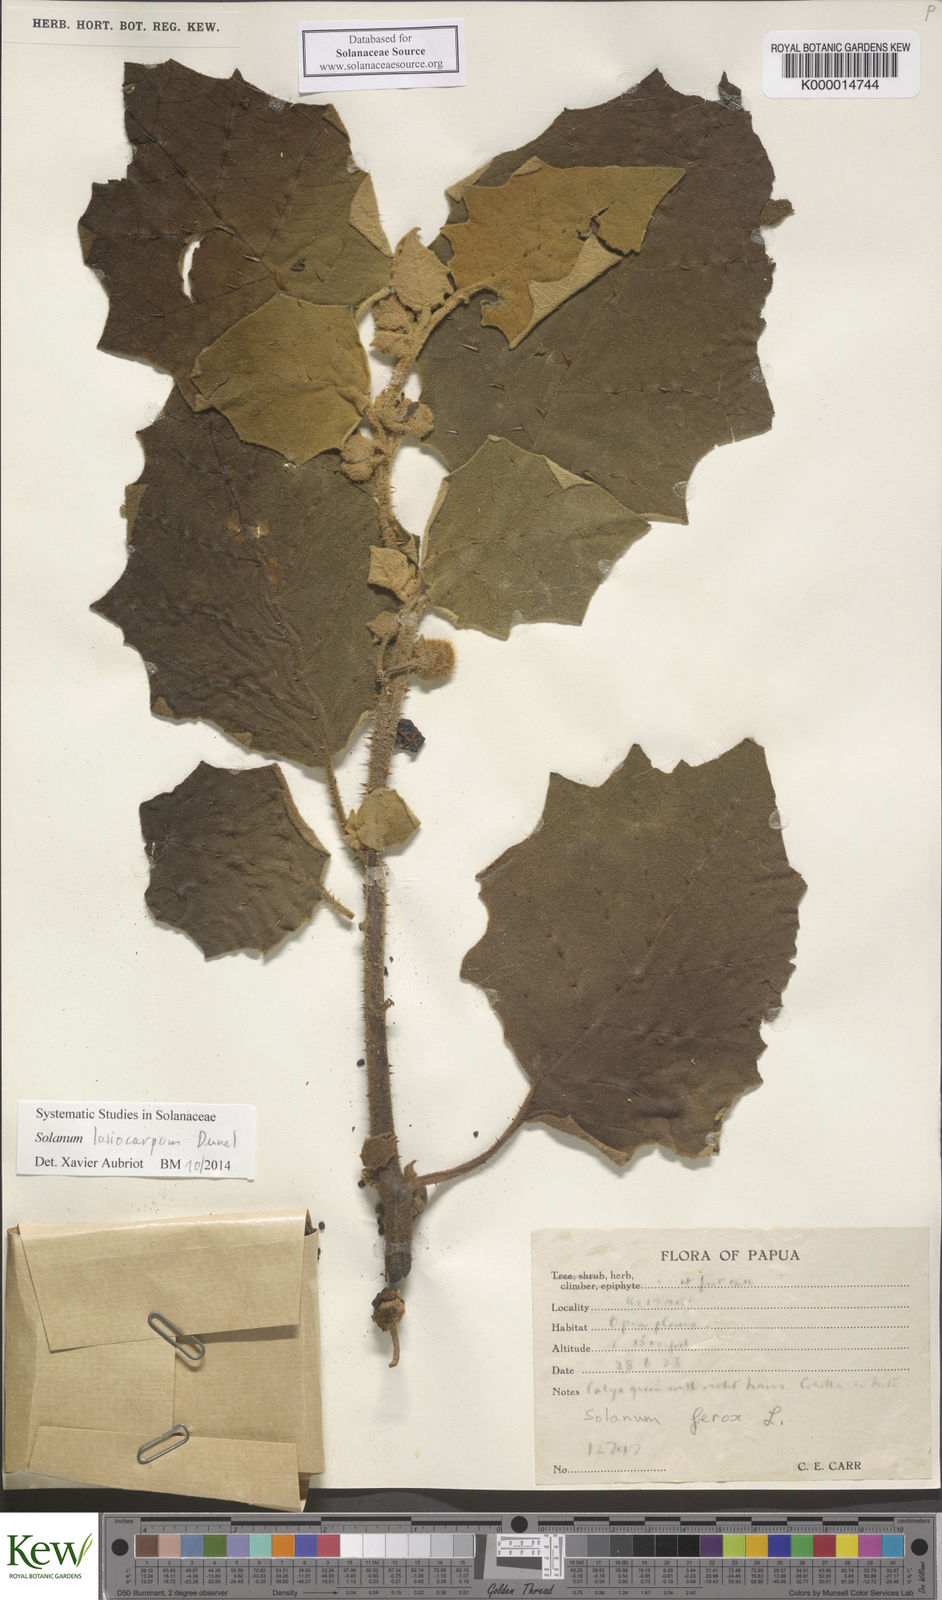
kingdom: Plantae
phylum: Tracheophyta
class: Magnoliopsida
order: Solanales
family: Solanaceae
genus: Solanum
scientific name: Solanum lasiocarpum
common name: Indian nightshade
